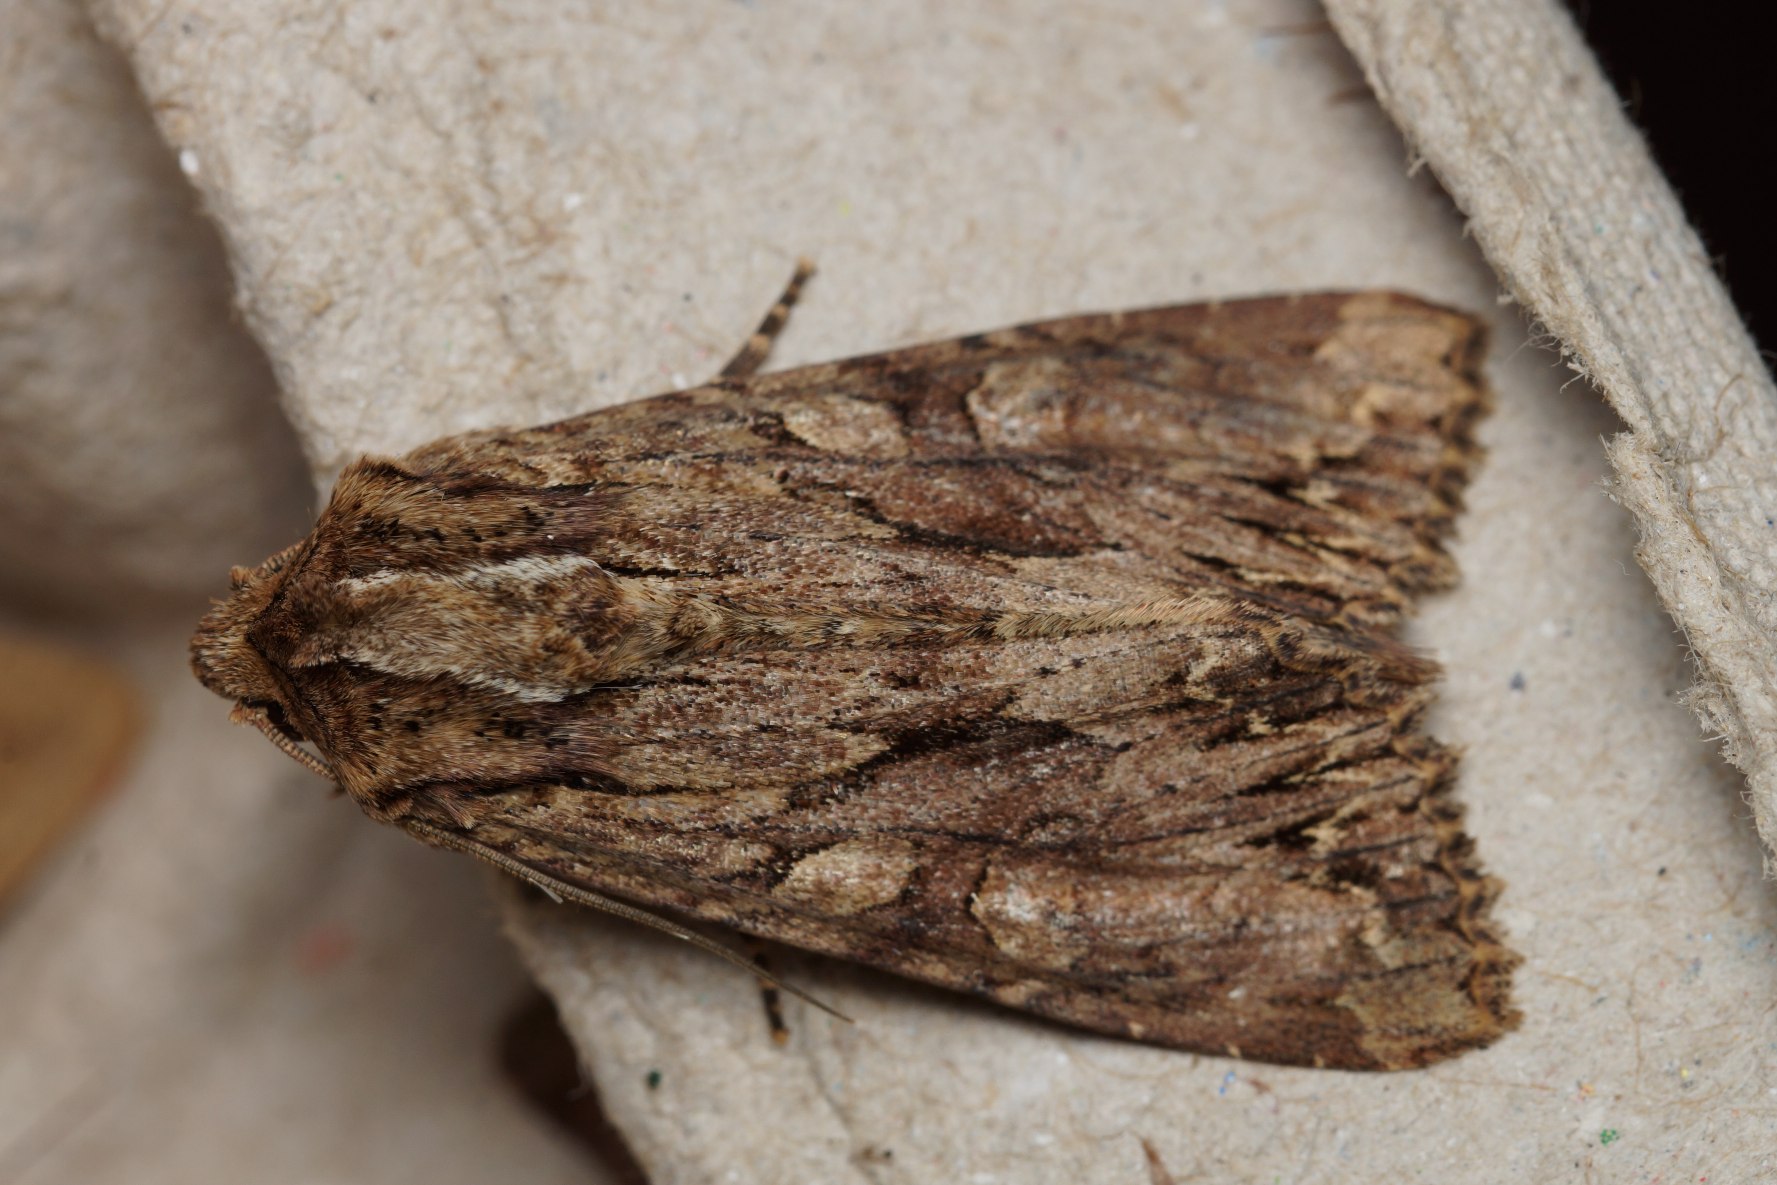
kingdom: Animalia
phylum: Arthropoda
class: Insecta
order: Lepidoptera
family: Noctuidae
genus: Apamea
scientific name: Apamea monoglypha
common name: Jordugle
